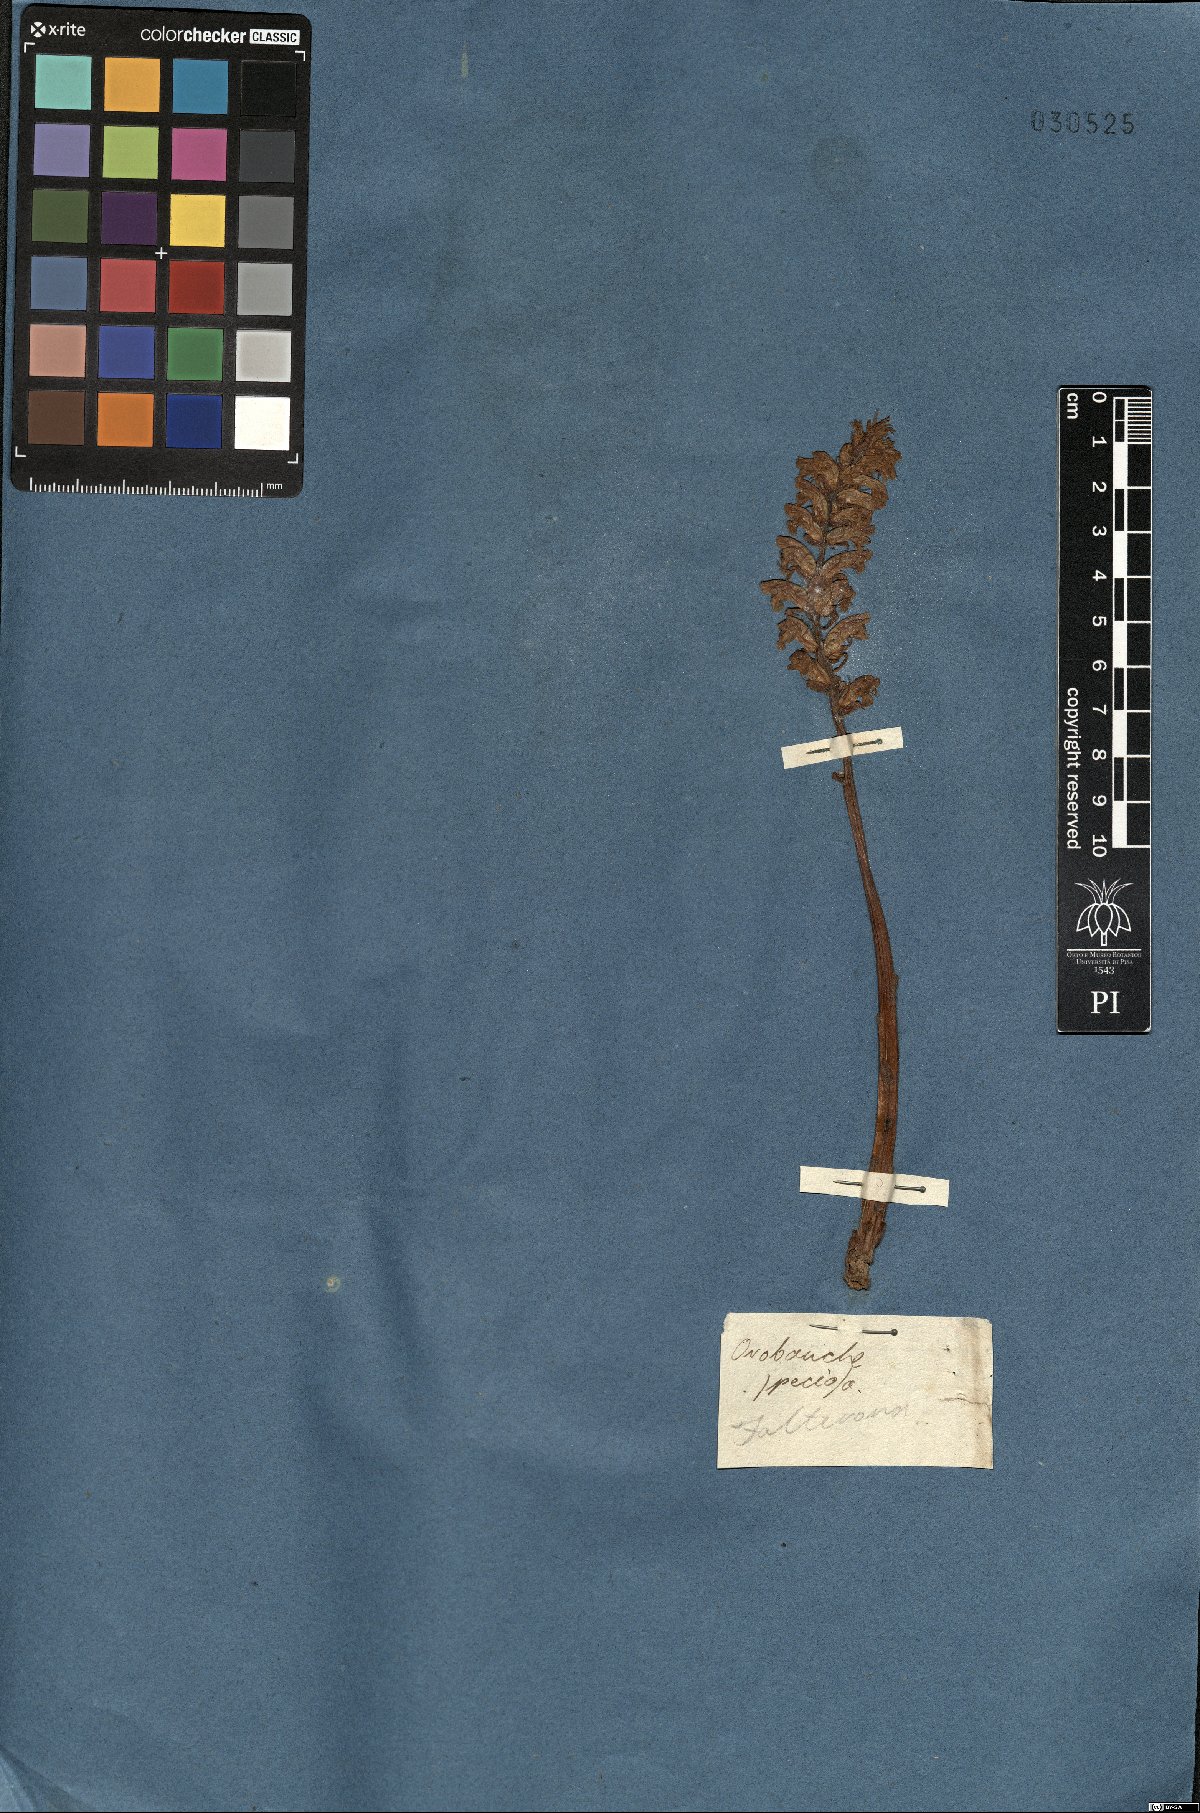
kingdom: Plantae
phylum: Tracheophyta
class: Magnoliopsida
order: Lamiales
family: Orobanchaceae
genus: Orobanche
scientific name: Orobanche crenata
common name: Bean broomrape
